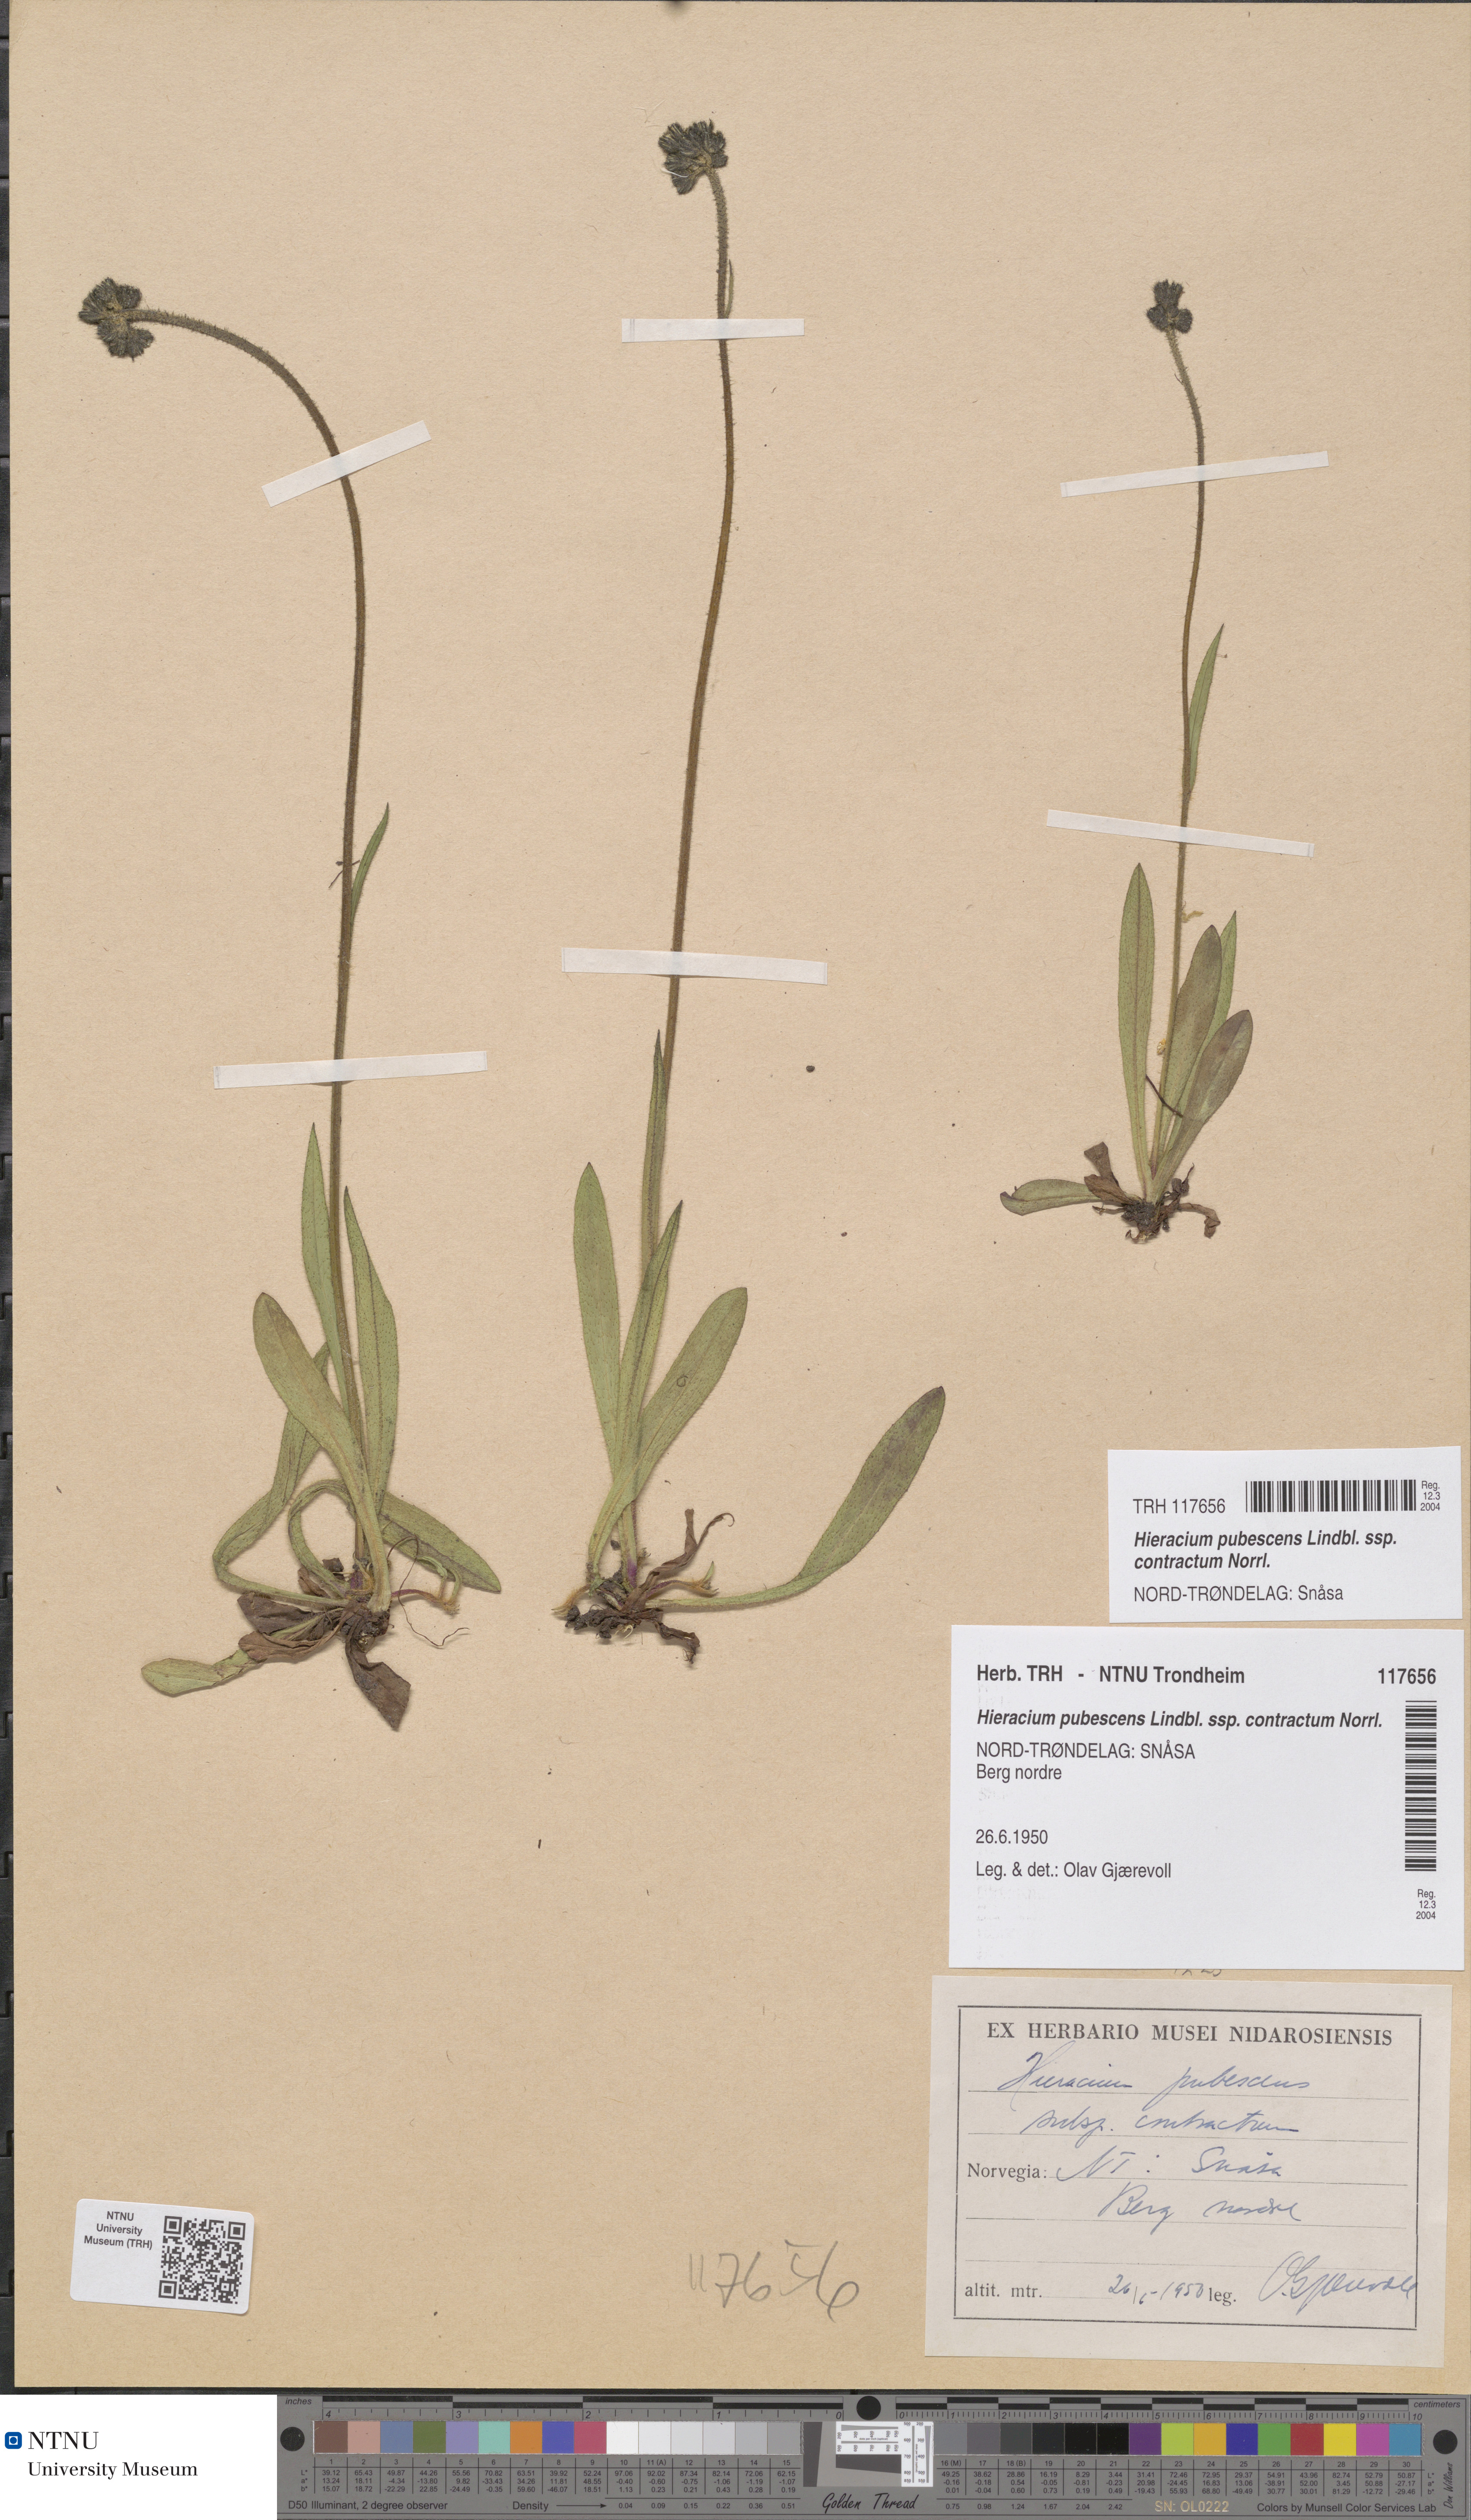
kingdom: Plantae
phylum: Tracheophyta
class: Magnoliopsida
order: Asterales
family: Asteraceae
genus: Pilosella
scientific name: Pilosella cymosa
